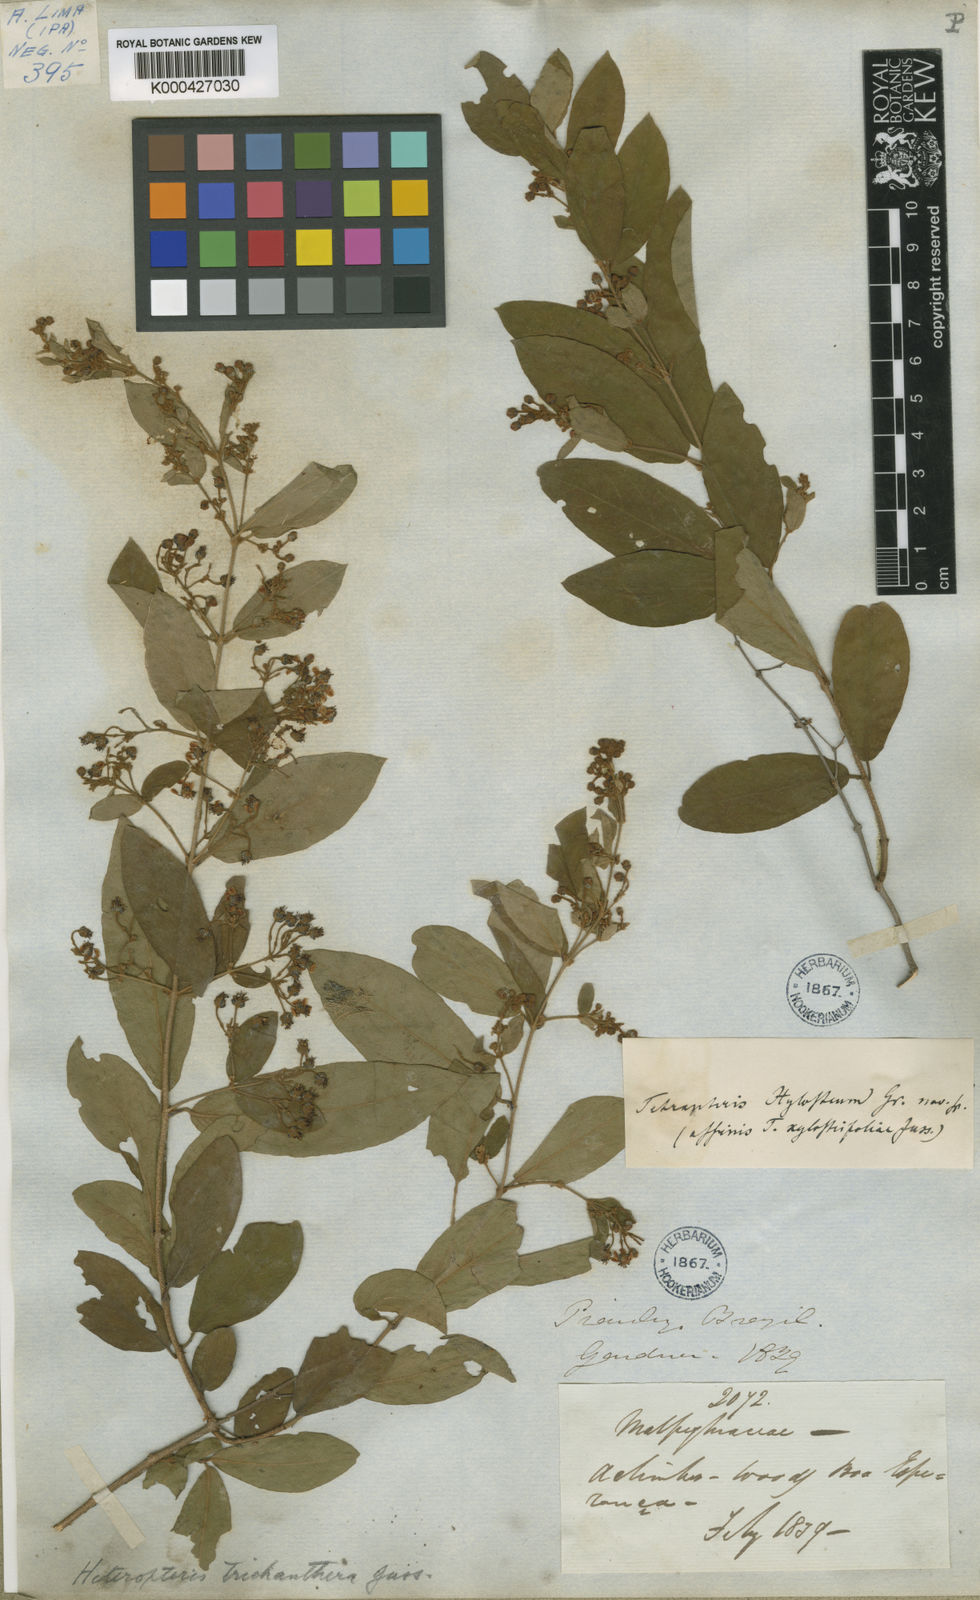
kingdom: Plantae
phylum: Tracheophyta
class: Magnoliopsida
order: Malpighiales
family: Malpighiaceae
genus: Heteropterys
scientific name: Heteropterys trichanthera
